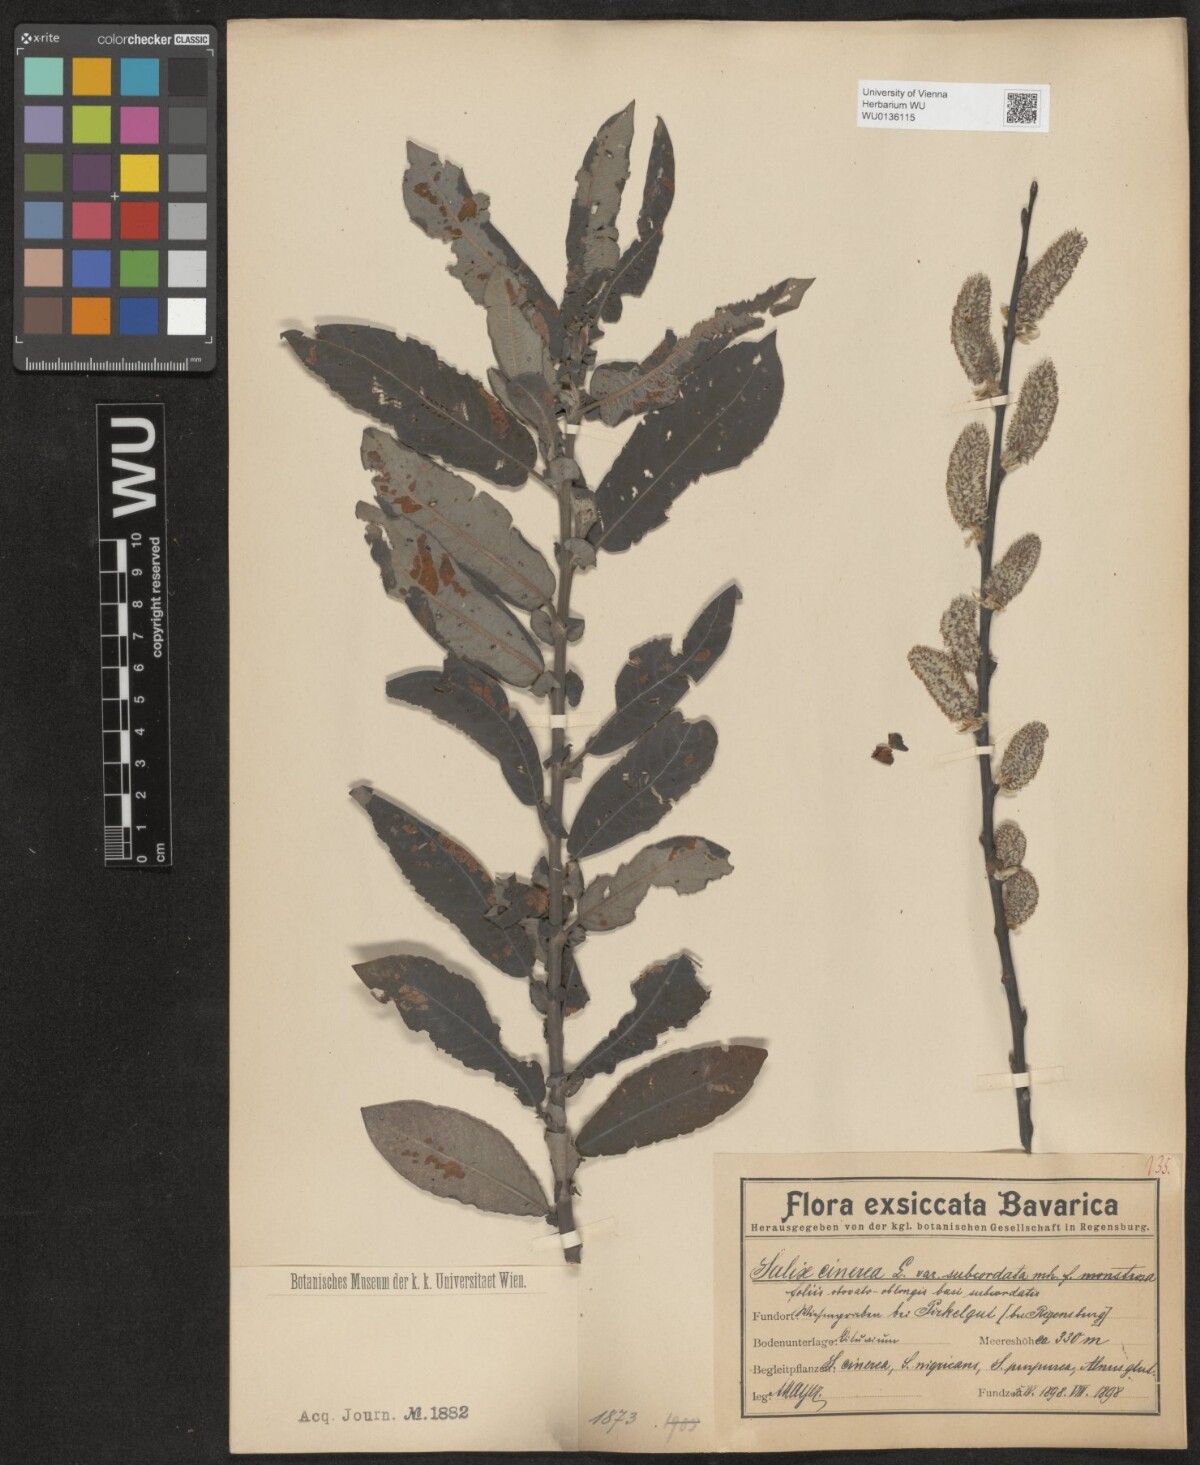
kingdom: Plantae
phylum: Tracheophyta
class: Magnoliopsida
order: Malpighiales
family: Salicaceae
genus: Salix
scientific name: Salix cinerea
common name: Common sallow
